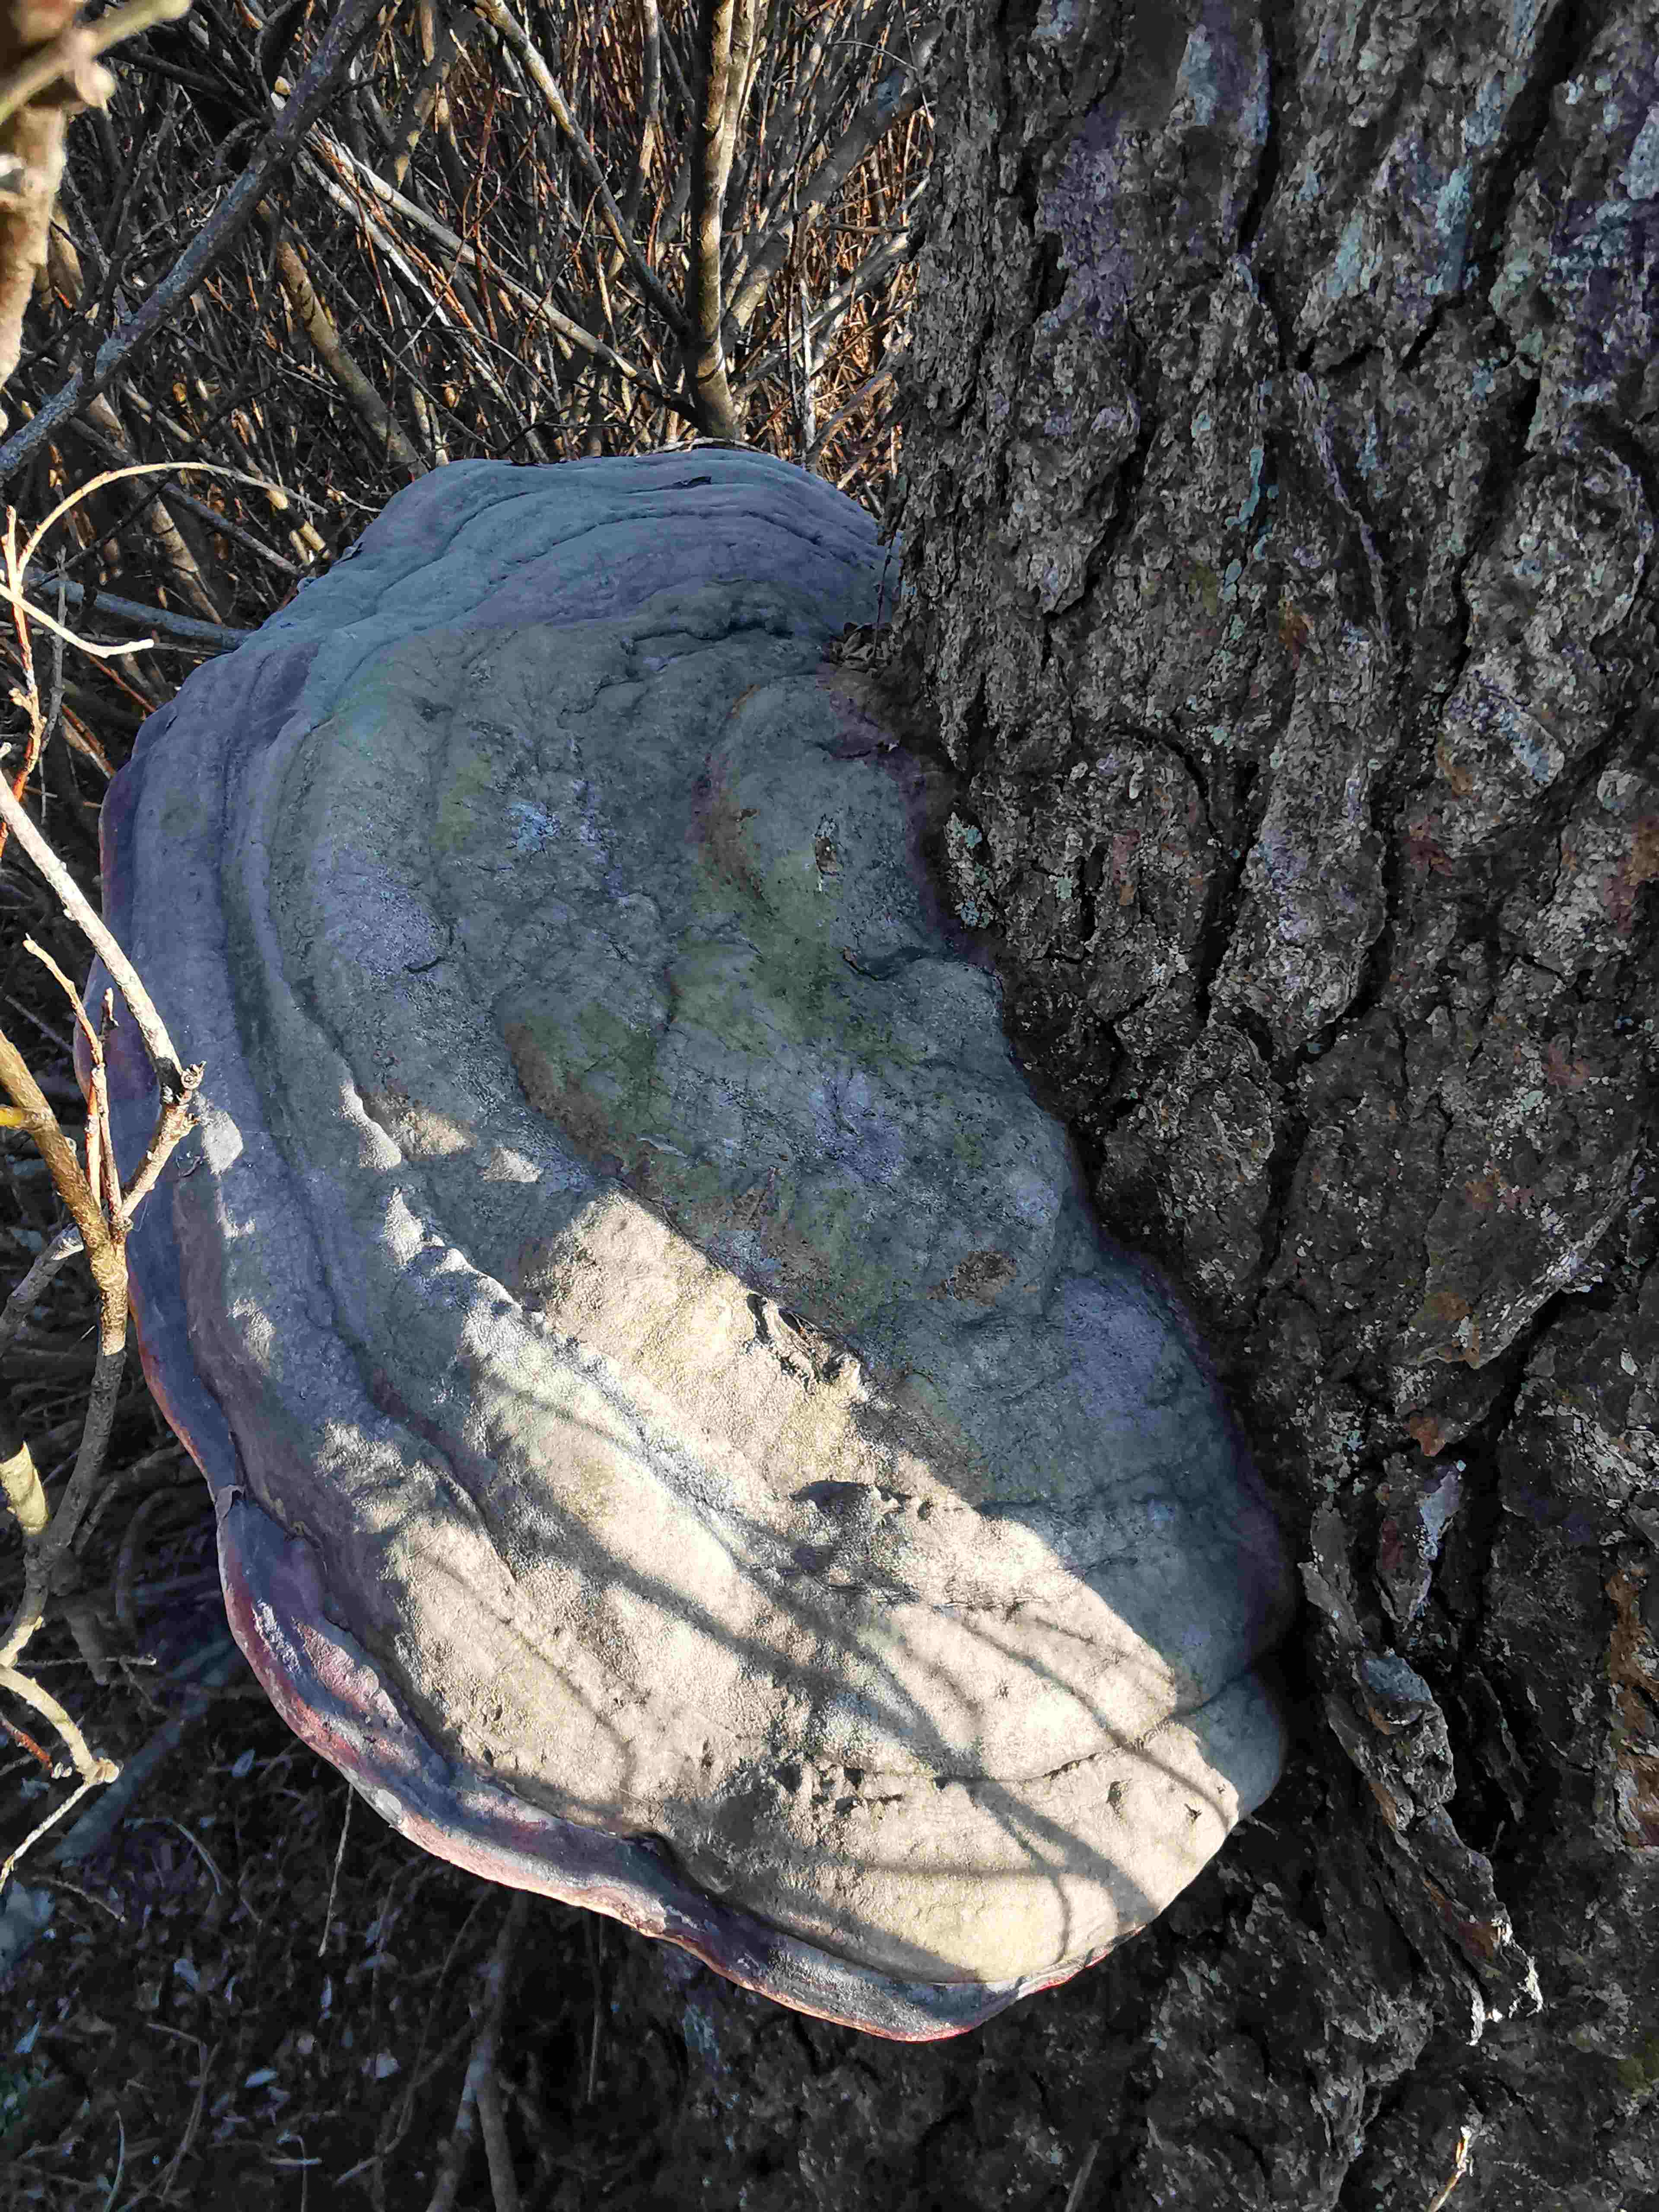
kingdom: Fungi
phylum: Basidiomycota
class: Agaricomycetes
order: Polyporales
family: Polyporaceae
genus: Fomes
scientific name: Fomes fomentarius
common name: tøndersvamp
